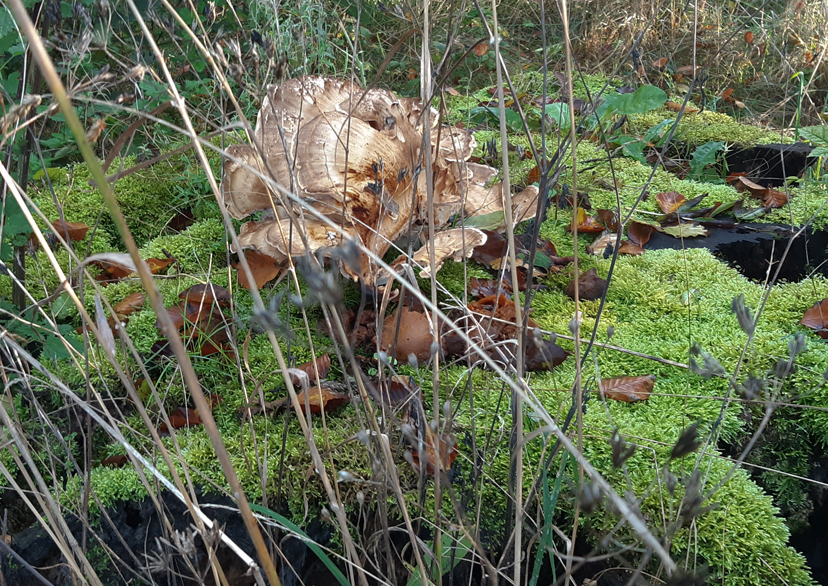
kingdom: Fungi
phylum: Basidiomycota
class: Agaricomycetes
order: Polyporales
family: Meripilaceae
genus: Meripilus
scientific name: Meripilus giganteus
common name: kæmpeporesvamp
